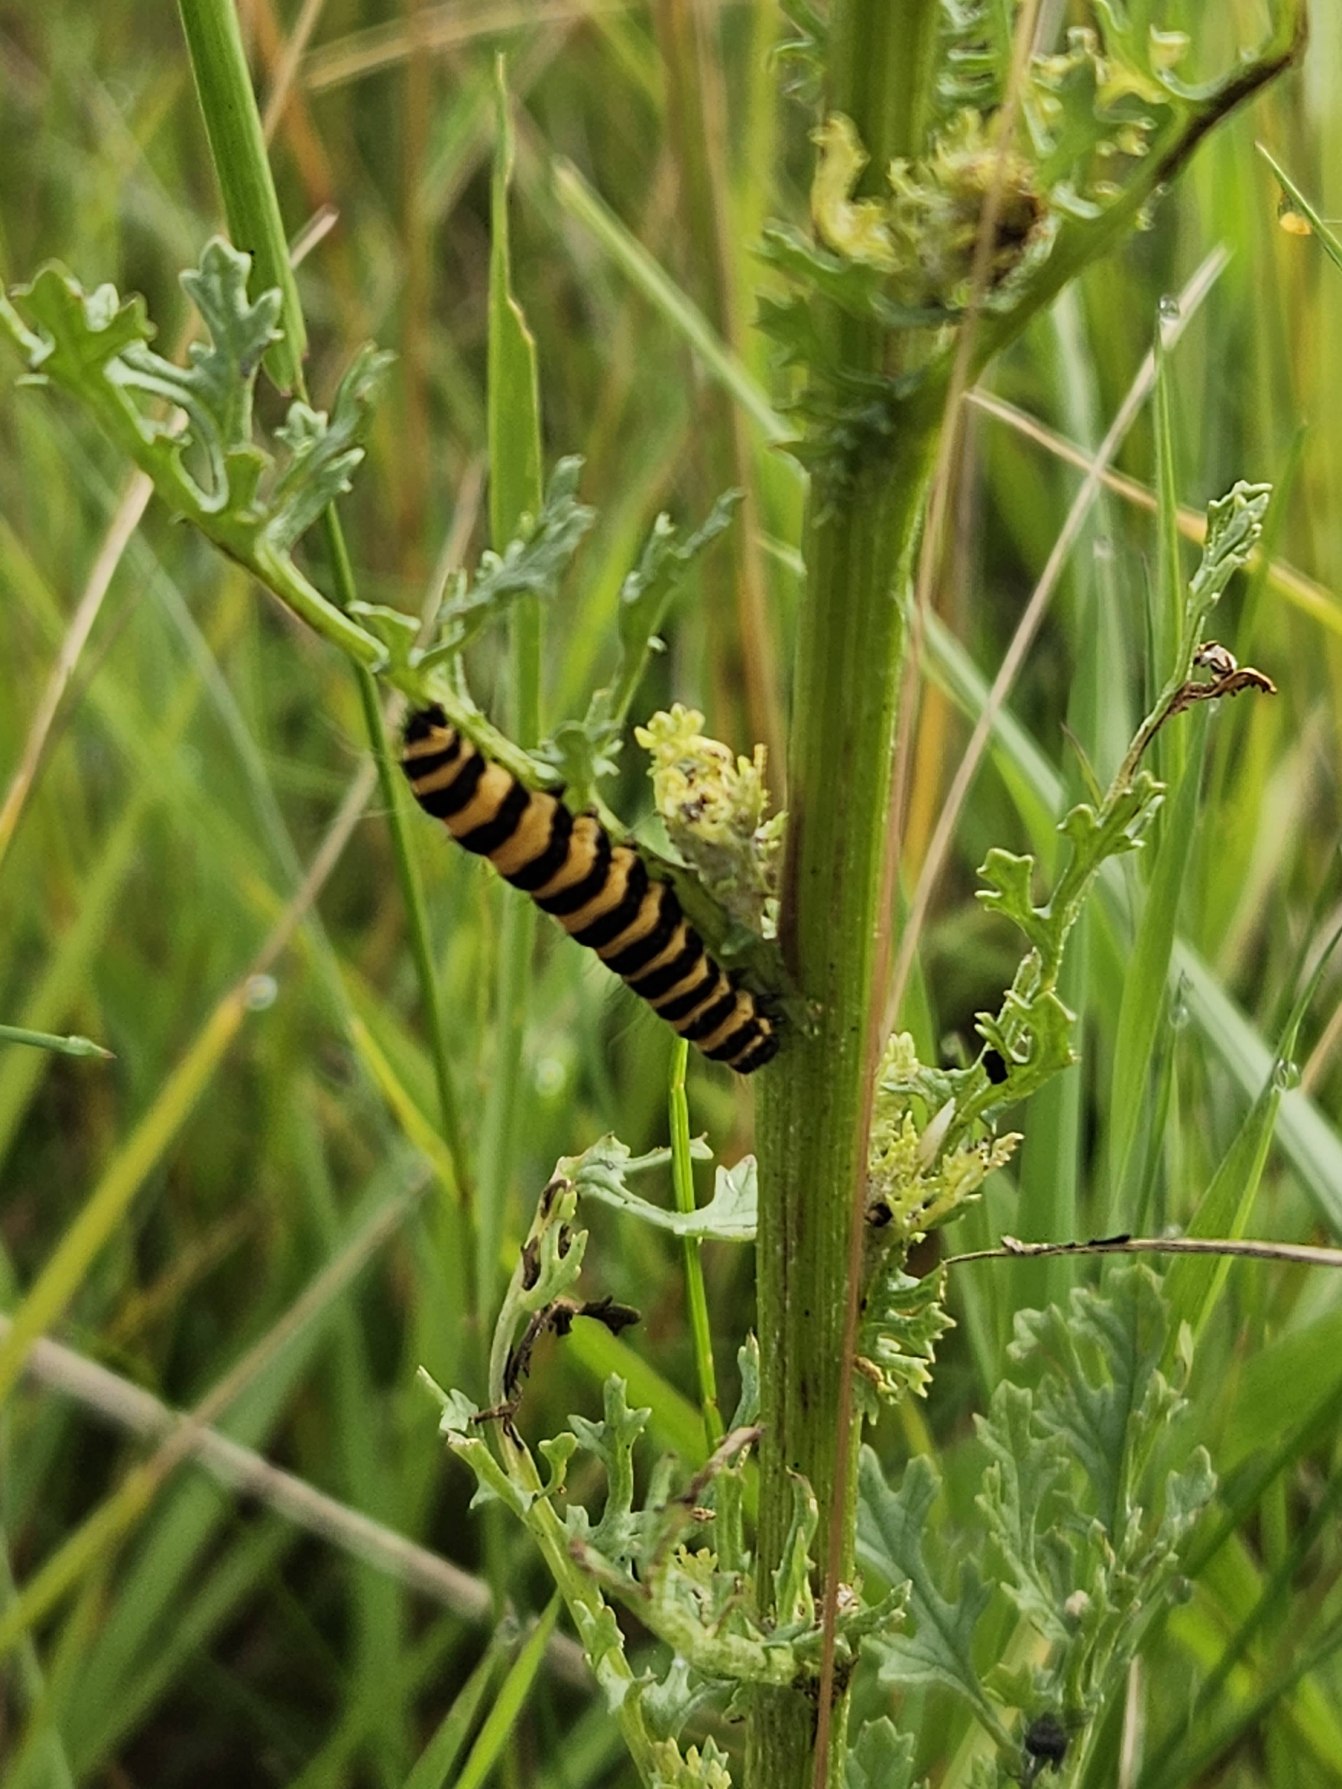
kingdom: Animalia
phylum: Arthropoda
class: Insecta
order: Lepidoptera
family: Erebidae
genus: Tyria
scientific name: Tyria jacobaeae
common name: Blodplet
